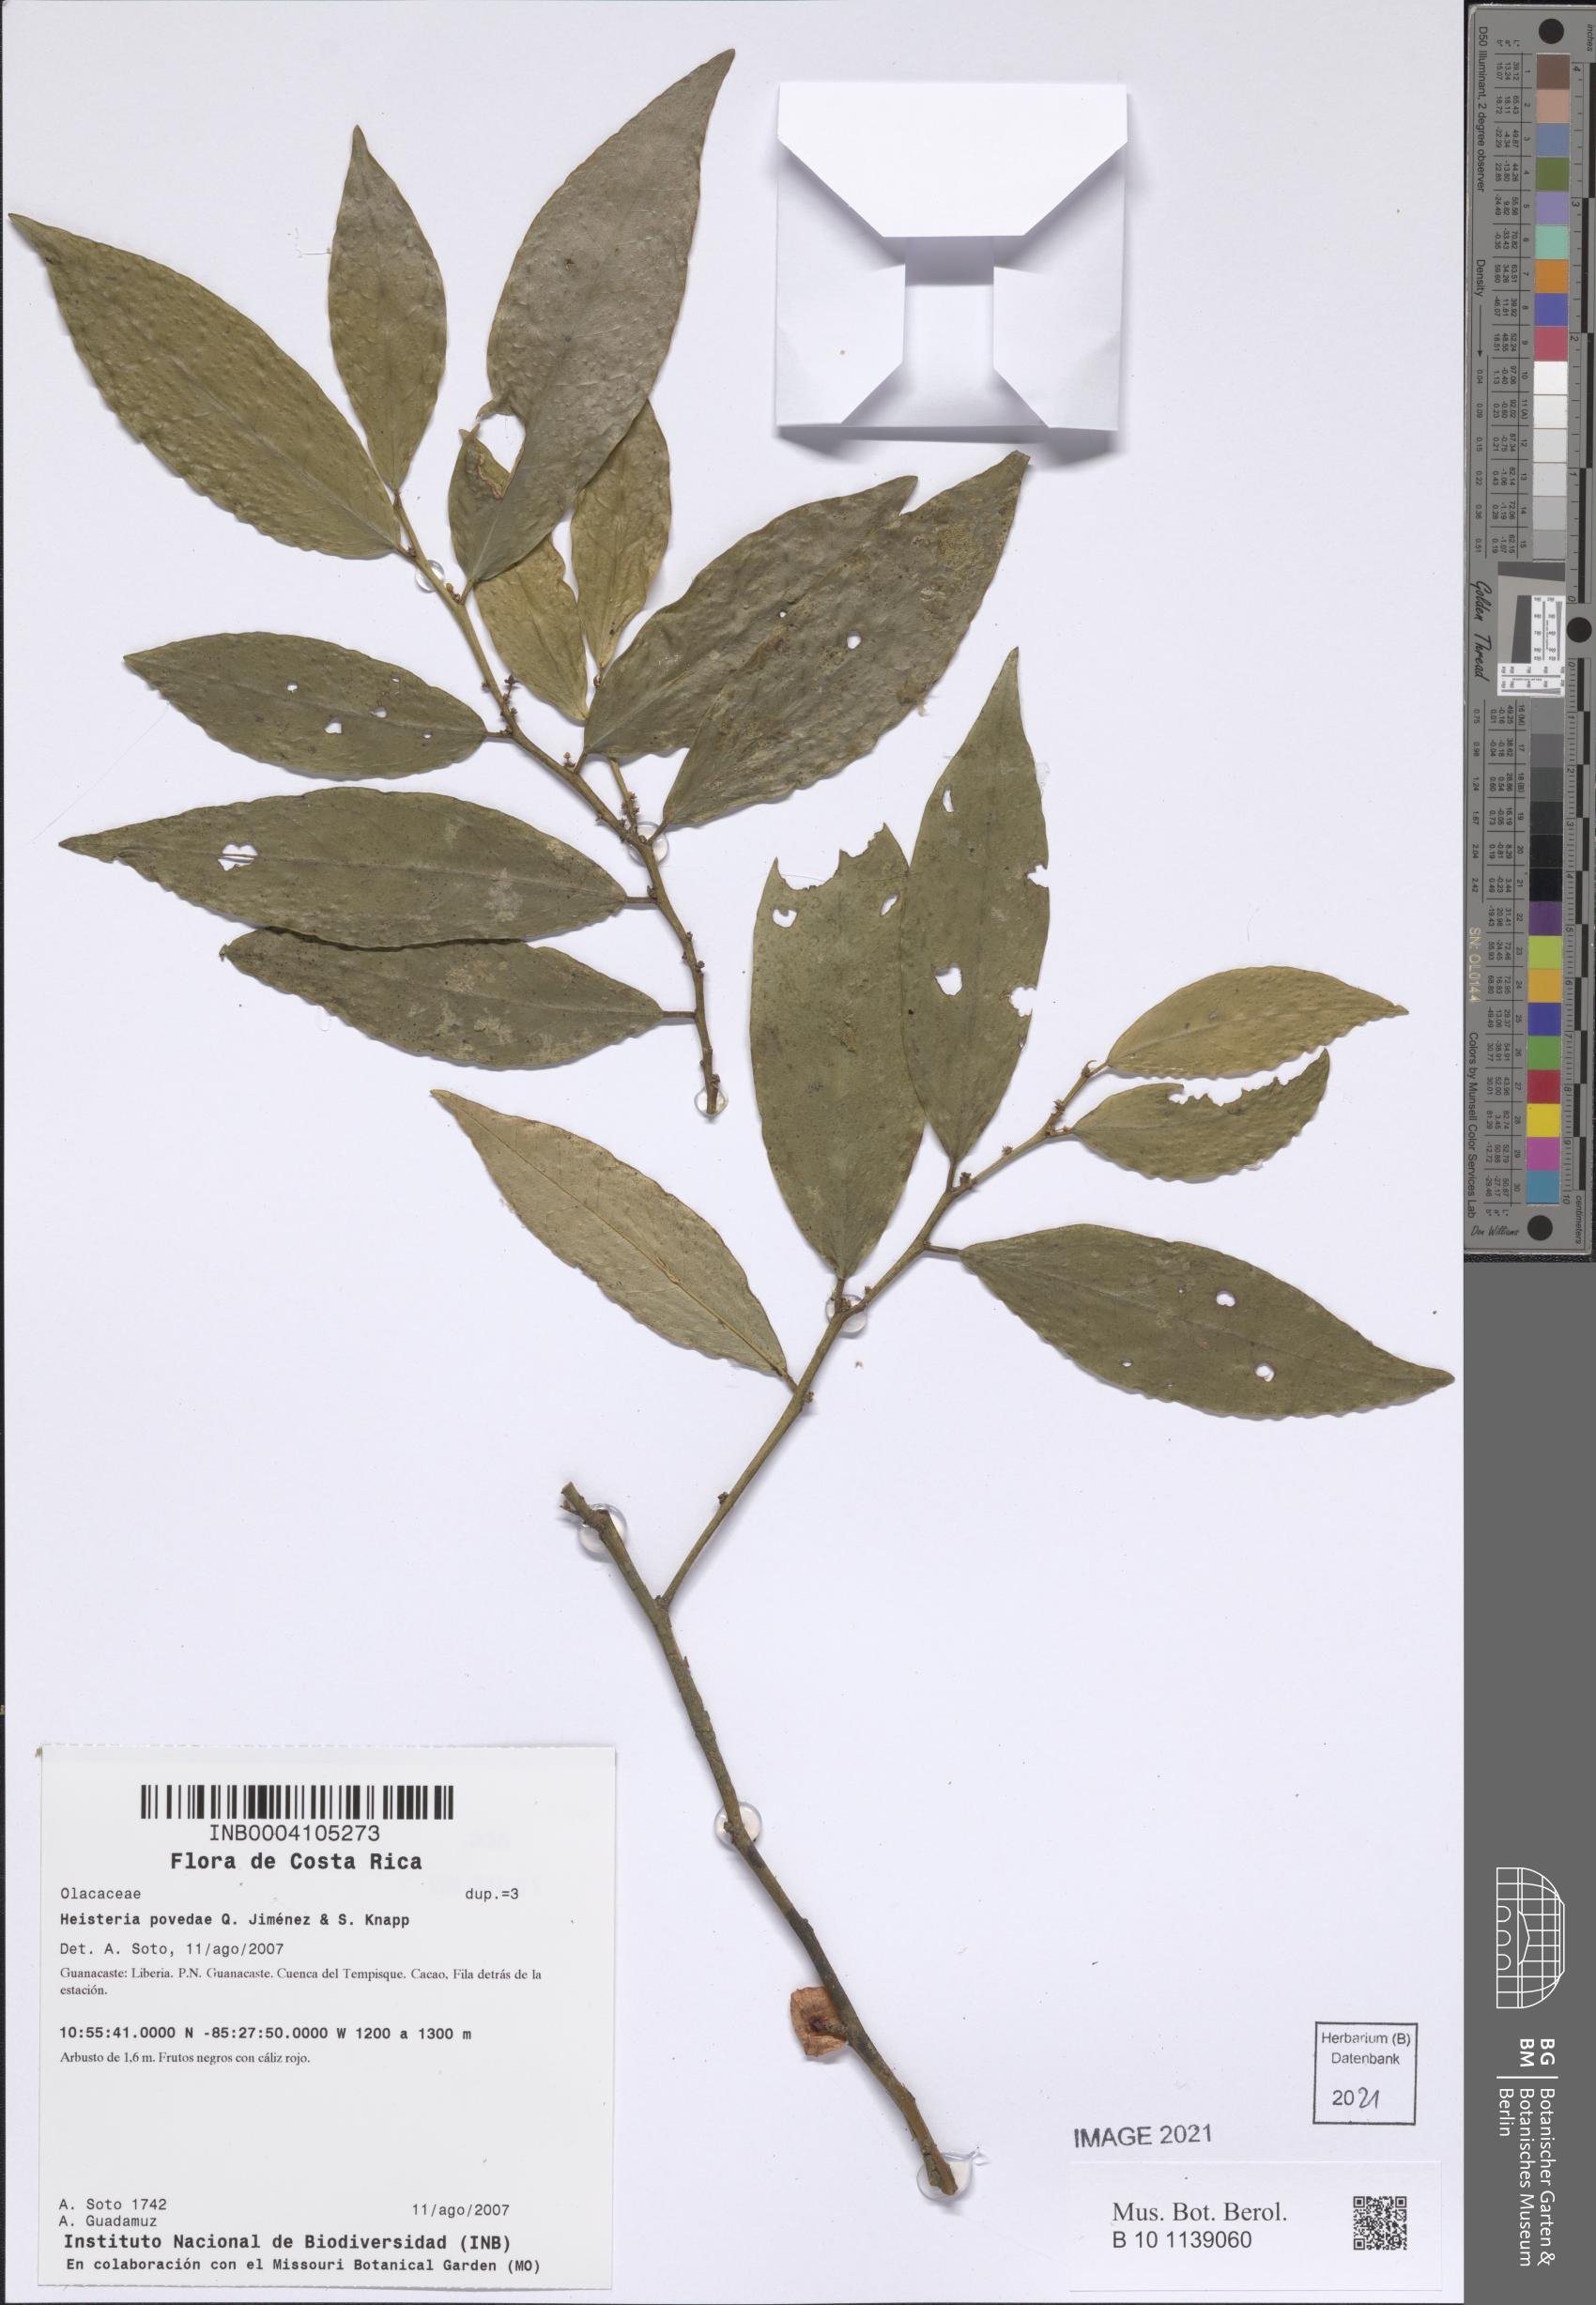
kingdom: Plantae
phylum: Tracheophyta
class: Magnoliopsida
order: Santalales
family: Erythropalaceae
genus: Heisteria
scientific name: Heisteria povedae
